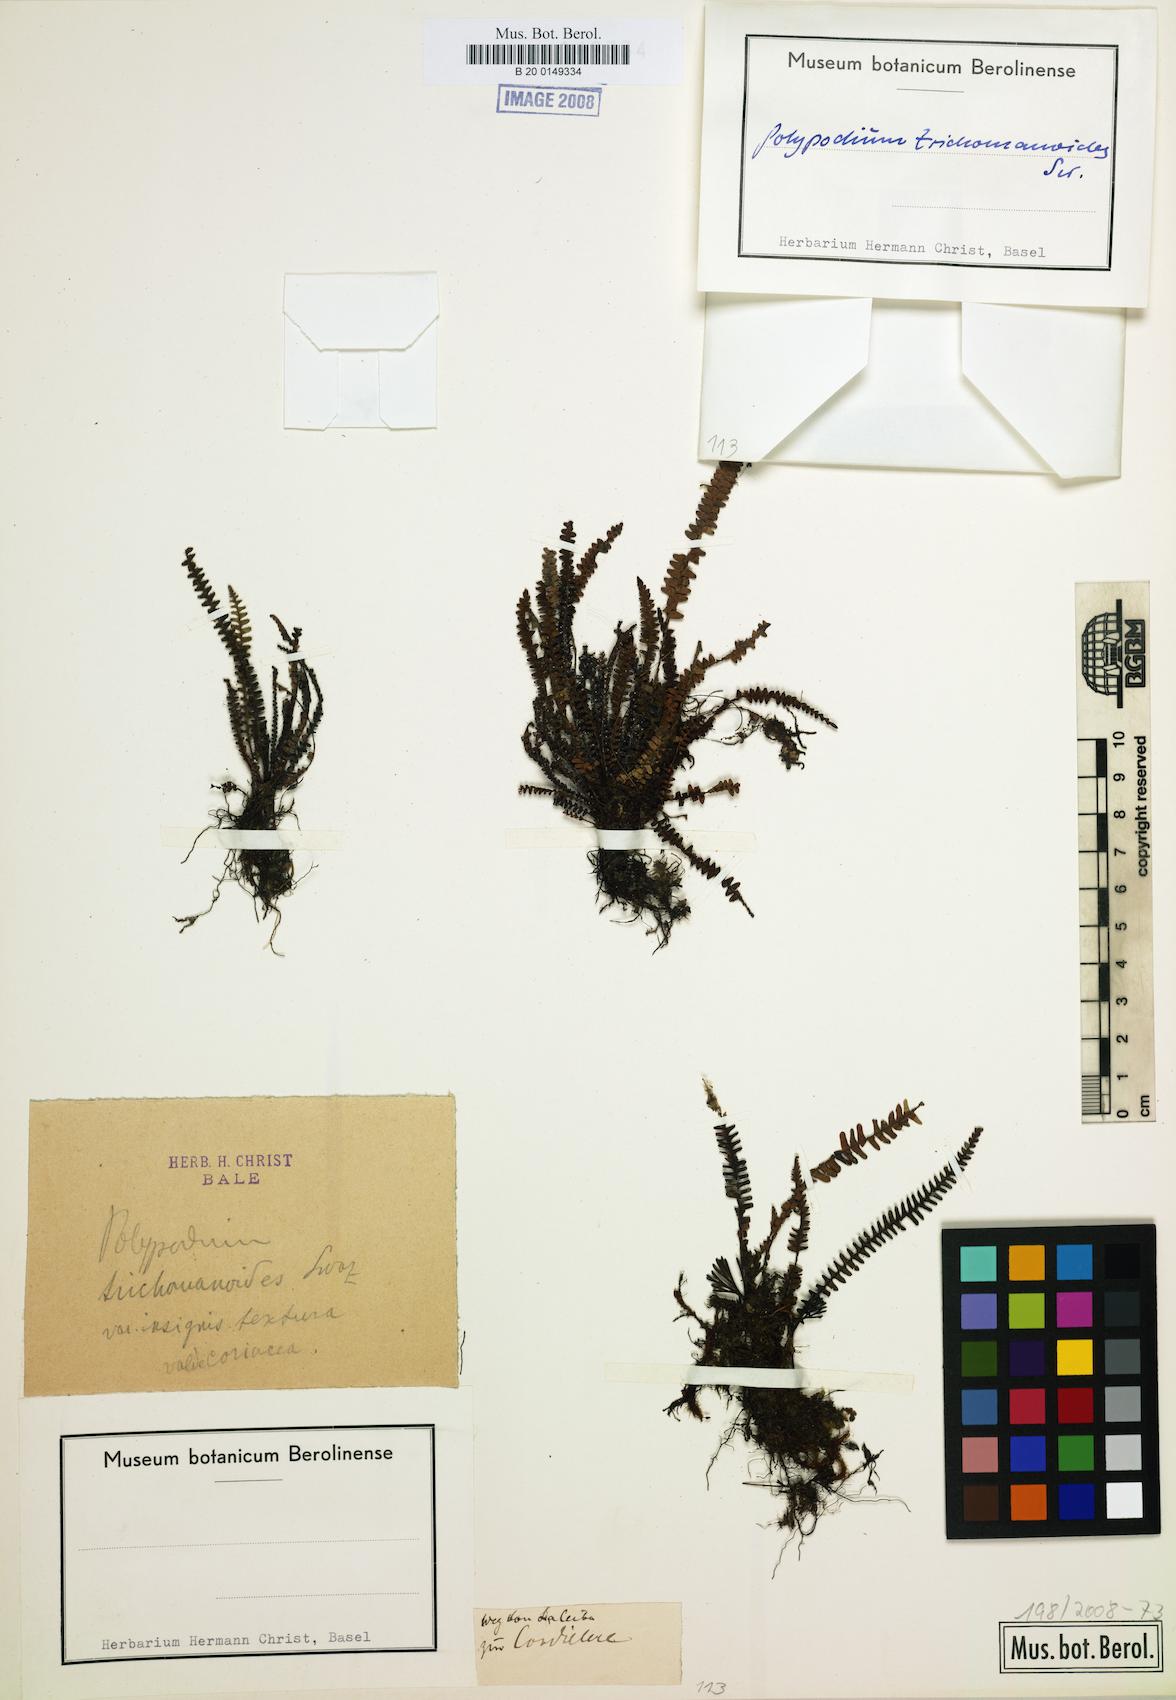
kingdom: Plantae
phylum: Tracheophyta
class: Polypodiopsida
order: Polypodiales
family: Polypodiaceae
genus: Moranopteris
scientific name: Moranopteris taenifolia
